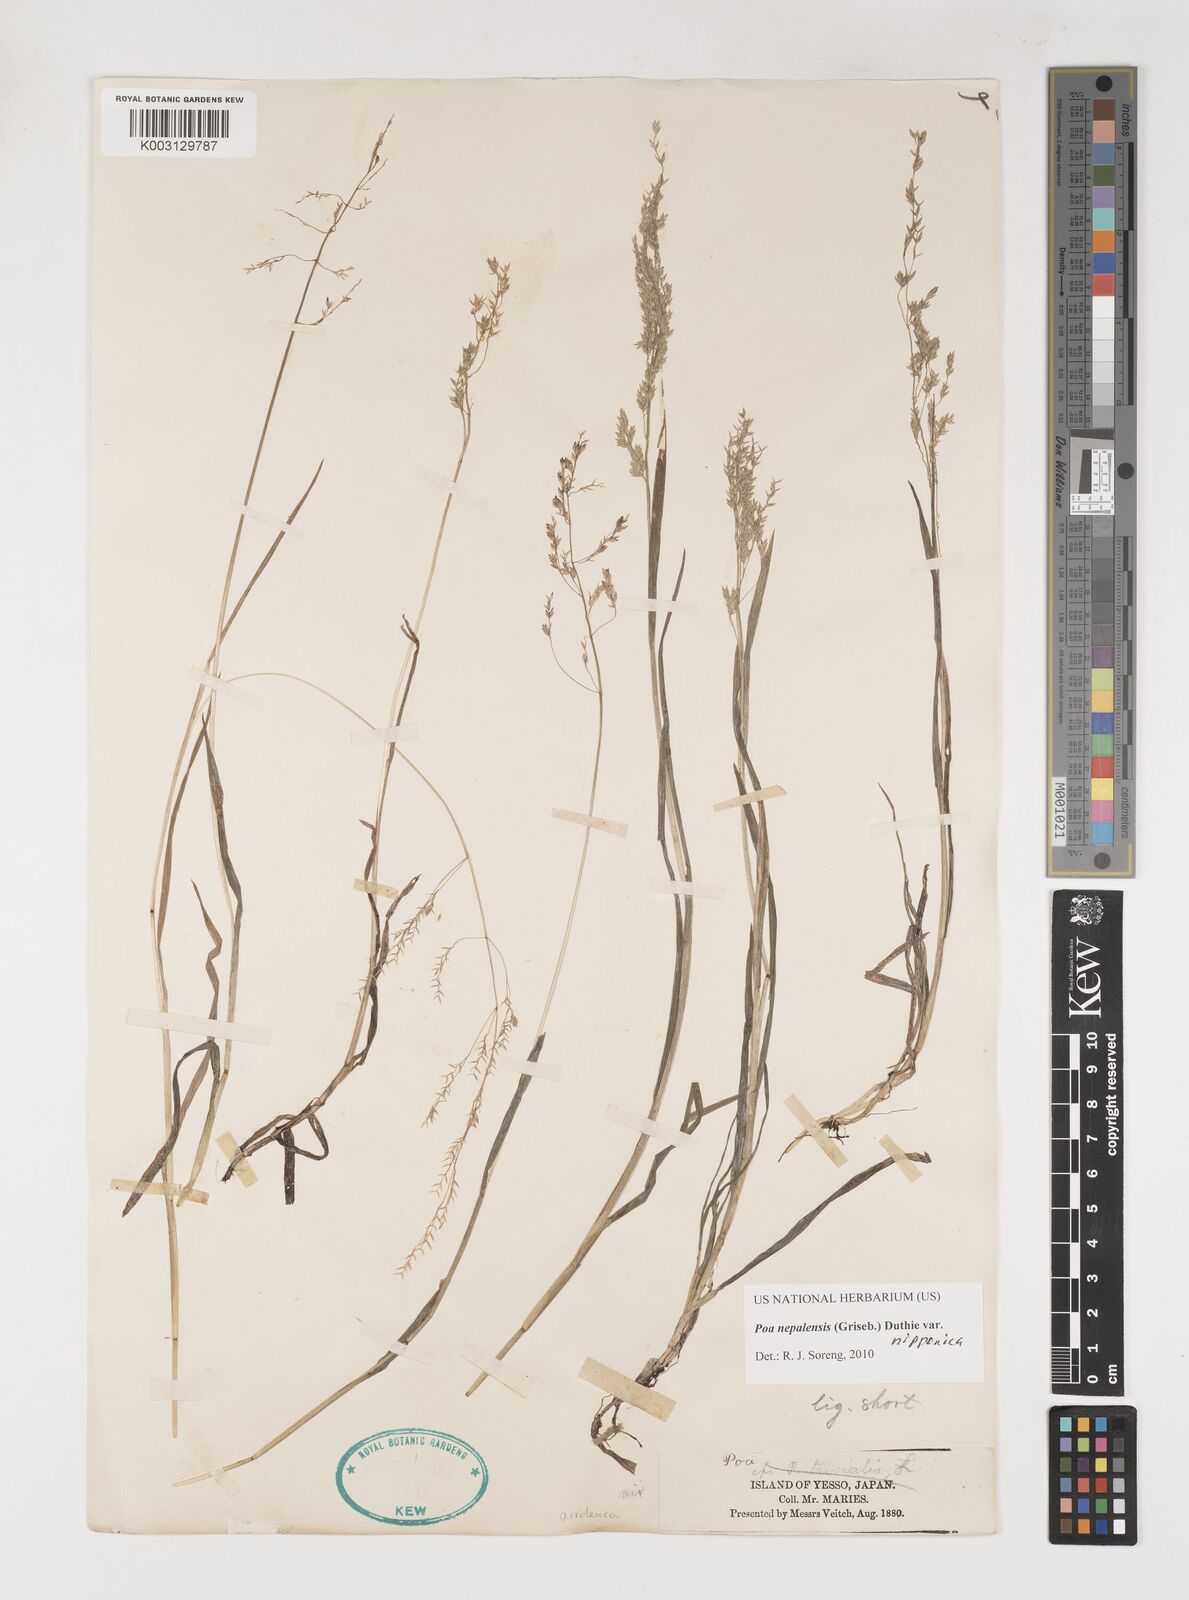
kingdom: Plantae
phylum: Tracheophyta
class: Liliopsida
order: Poales
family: Poaceae
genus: Poa
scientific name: Poa nepalensis
